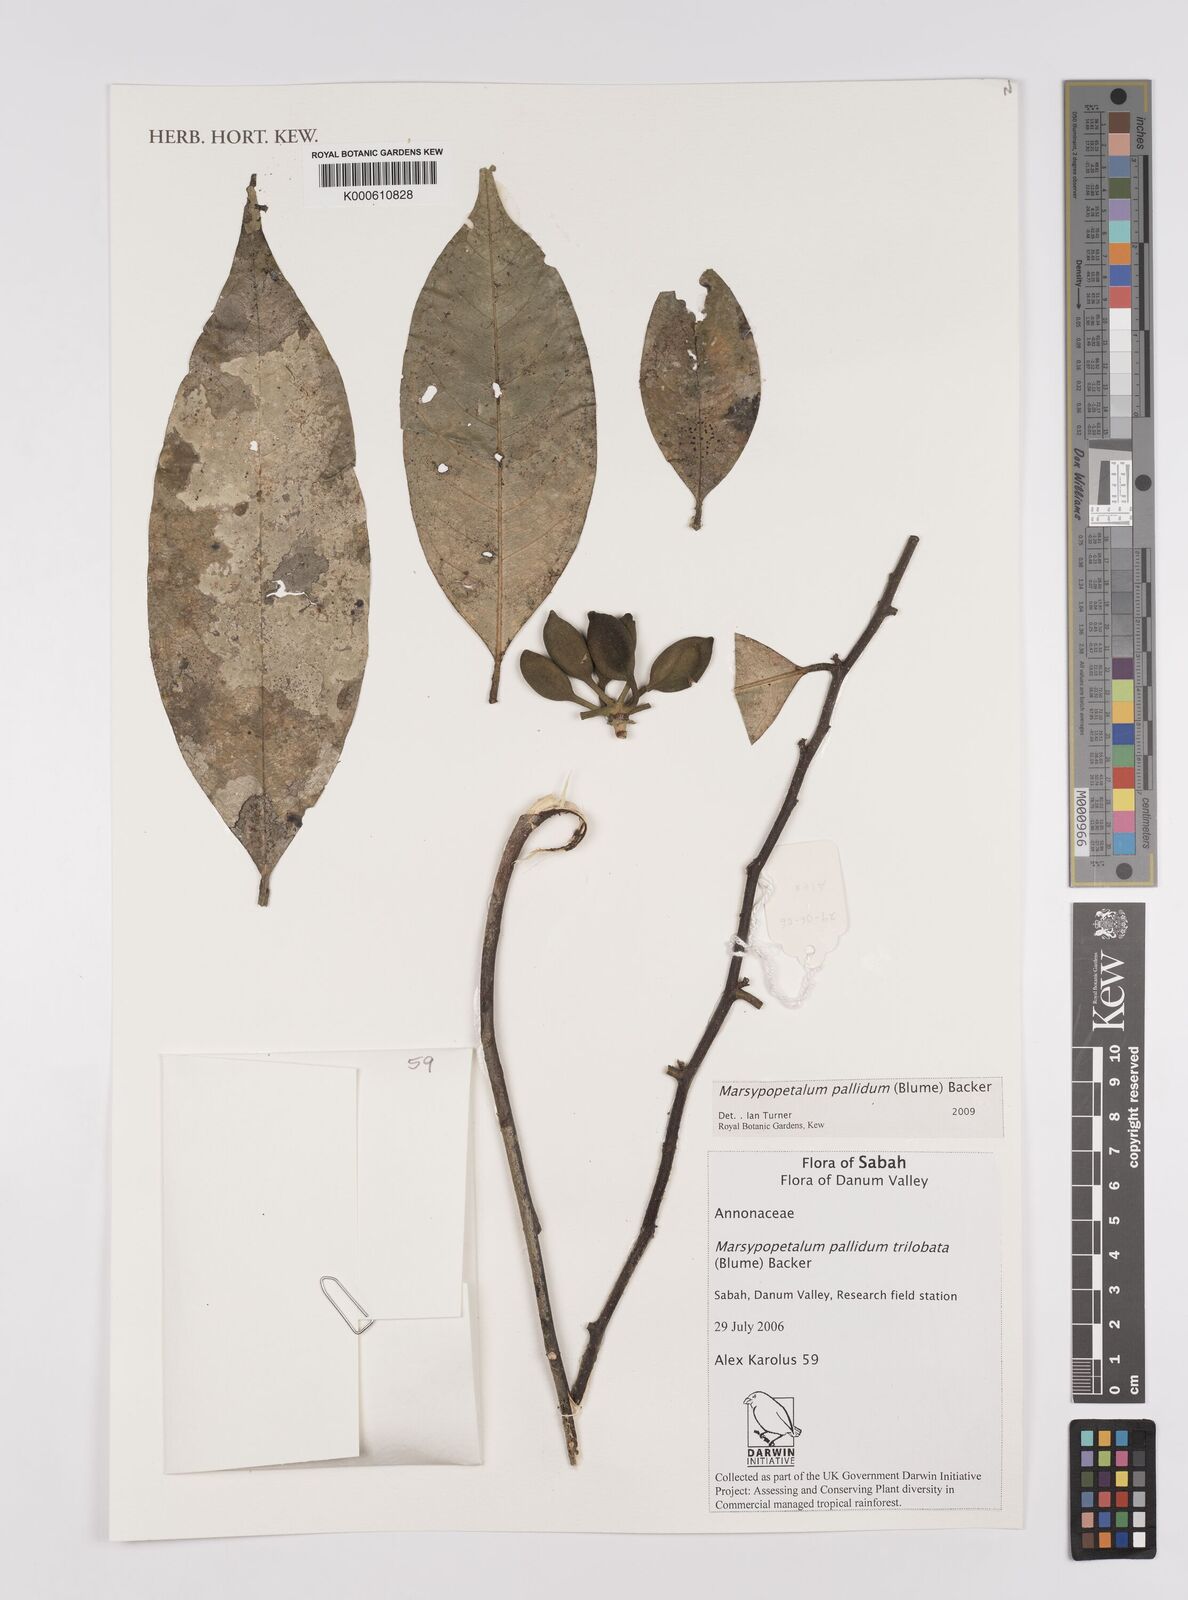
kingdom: Plantae
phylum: Tracheophyta
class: Magnoliopsida
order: Magnoliales
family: Annonaceae
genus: Marsypopetalum
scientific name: Marsypopetalum pallidum
